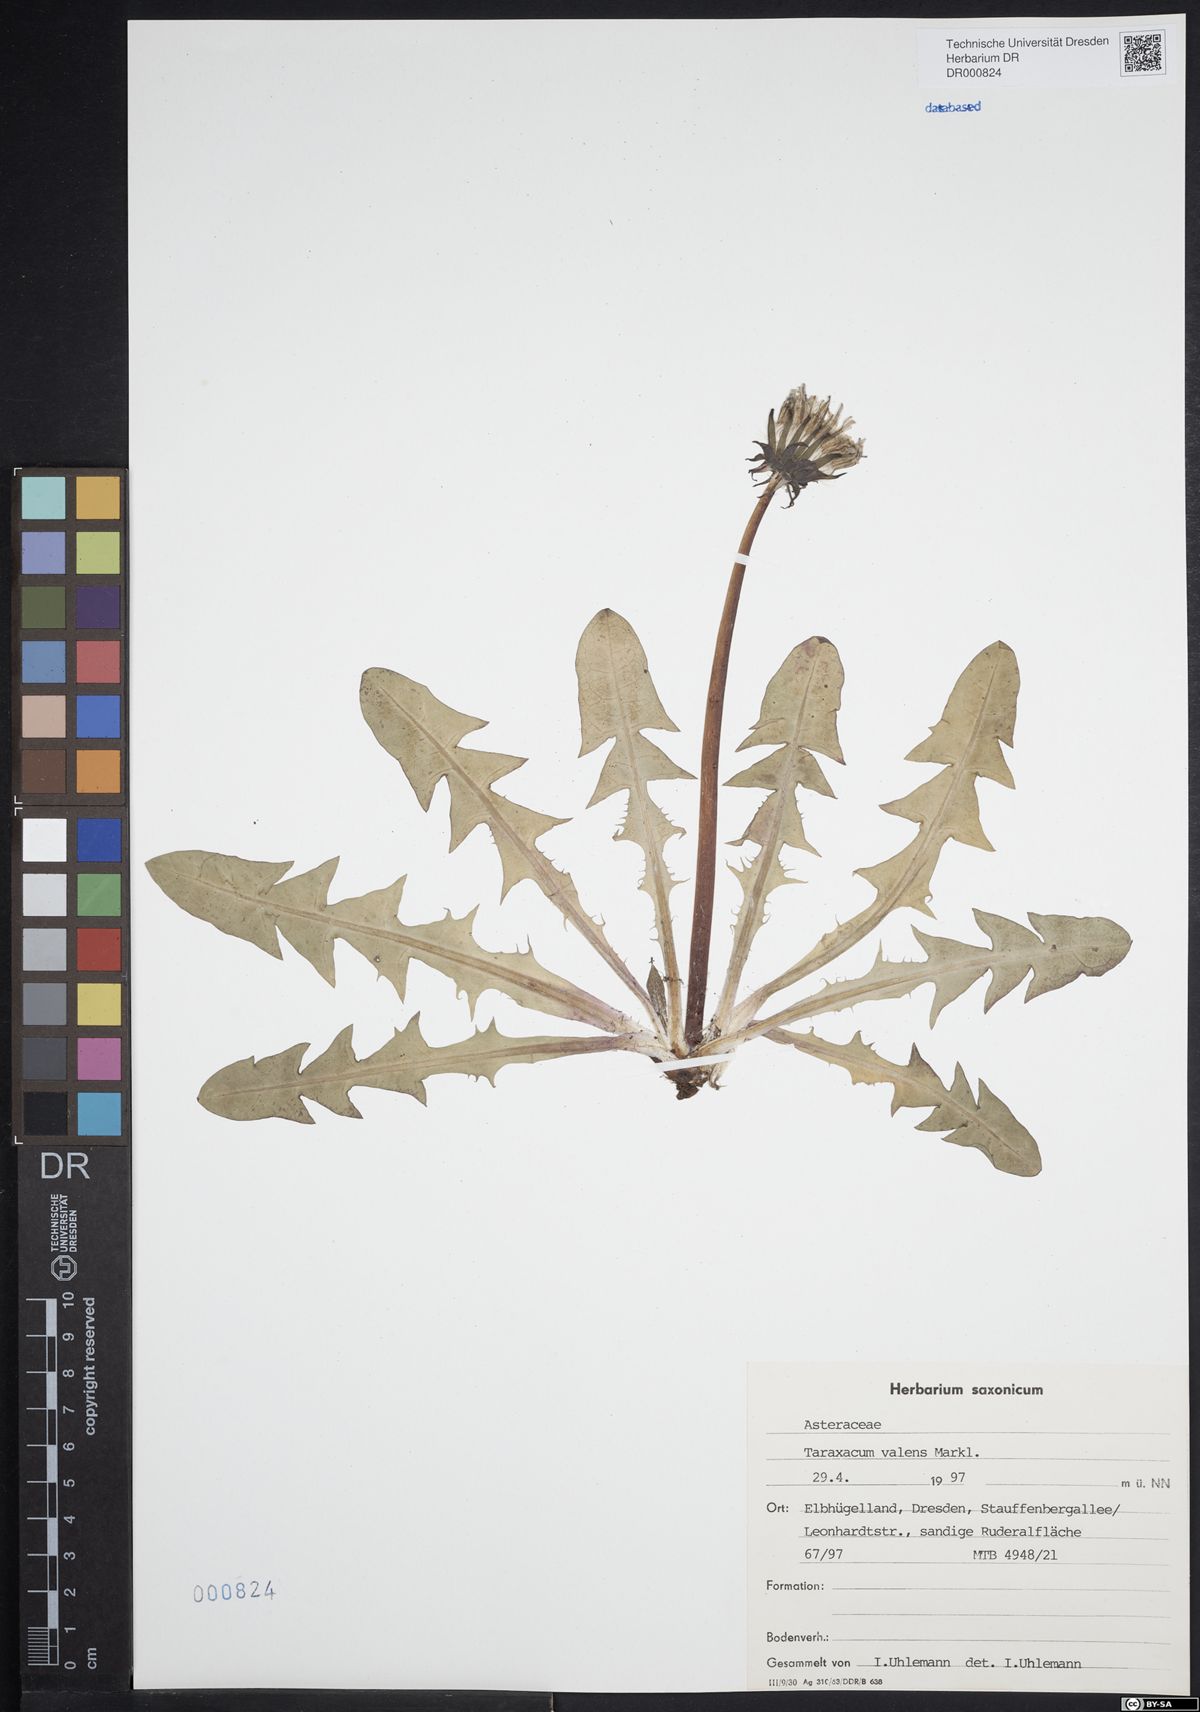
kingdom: Plantae
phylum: Tracheophyta
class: Magnoliopsida
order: Asterales
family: Asteraceae
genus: Taraxacum
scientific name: Taraxacum valens
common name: Reflexed-bracted dandelion
